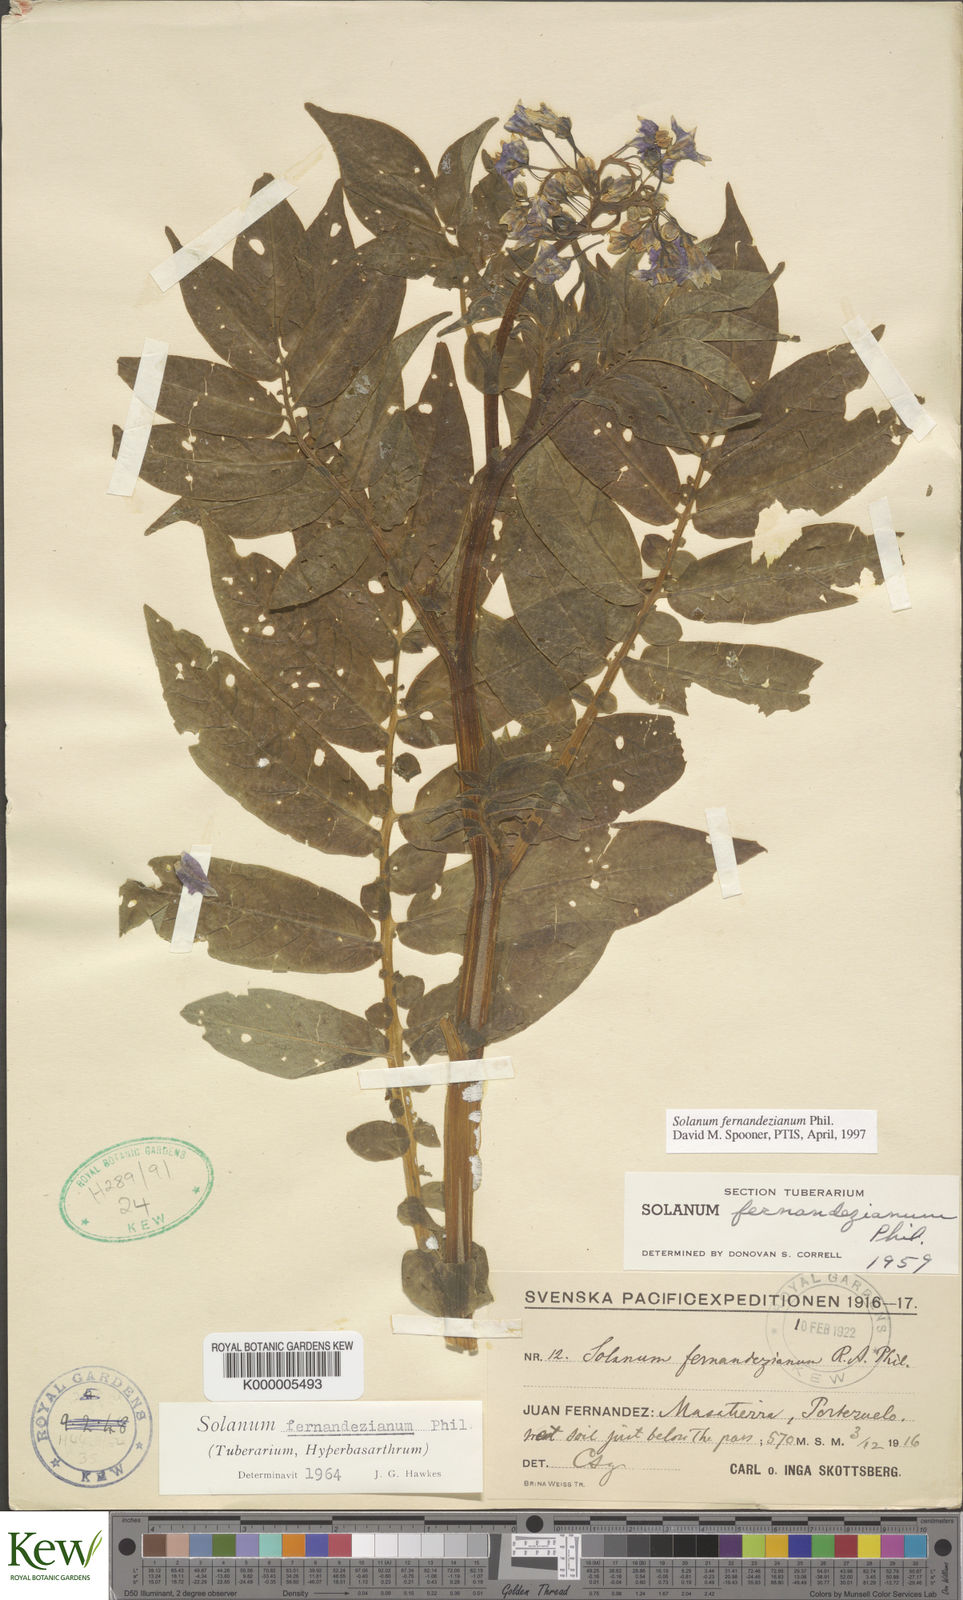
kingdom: Plantae
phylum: Tracheophyta
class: Magnoliopsida
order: Solanales
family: Solanaceae
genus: Solanum
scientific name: Solanum fernandezianum
